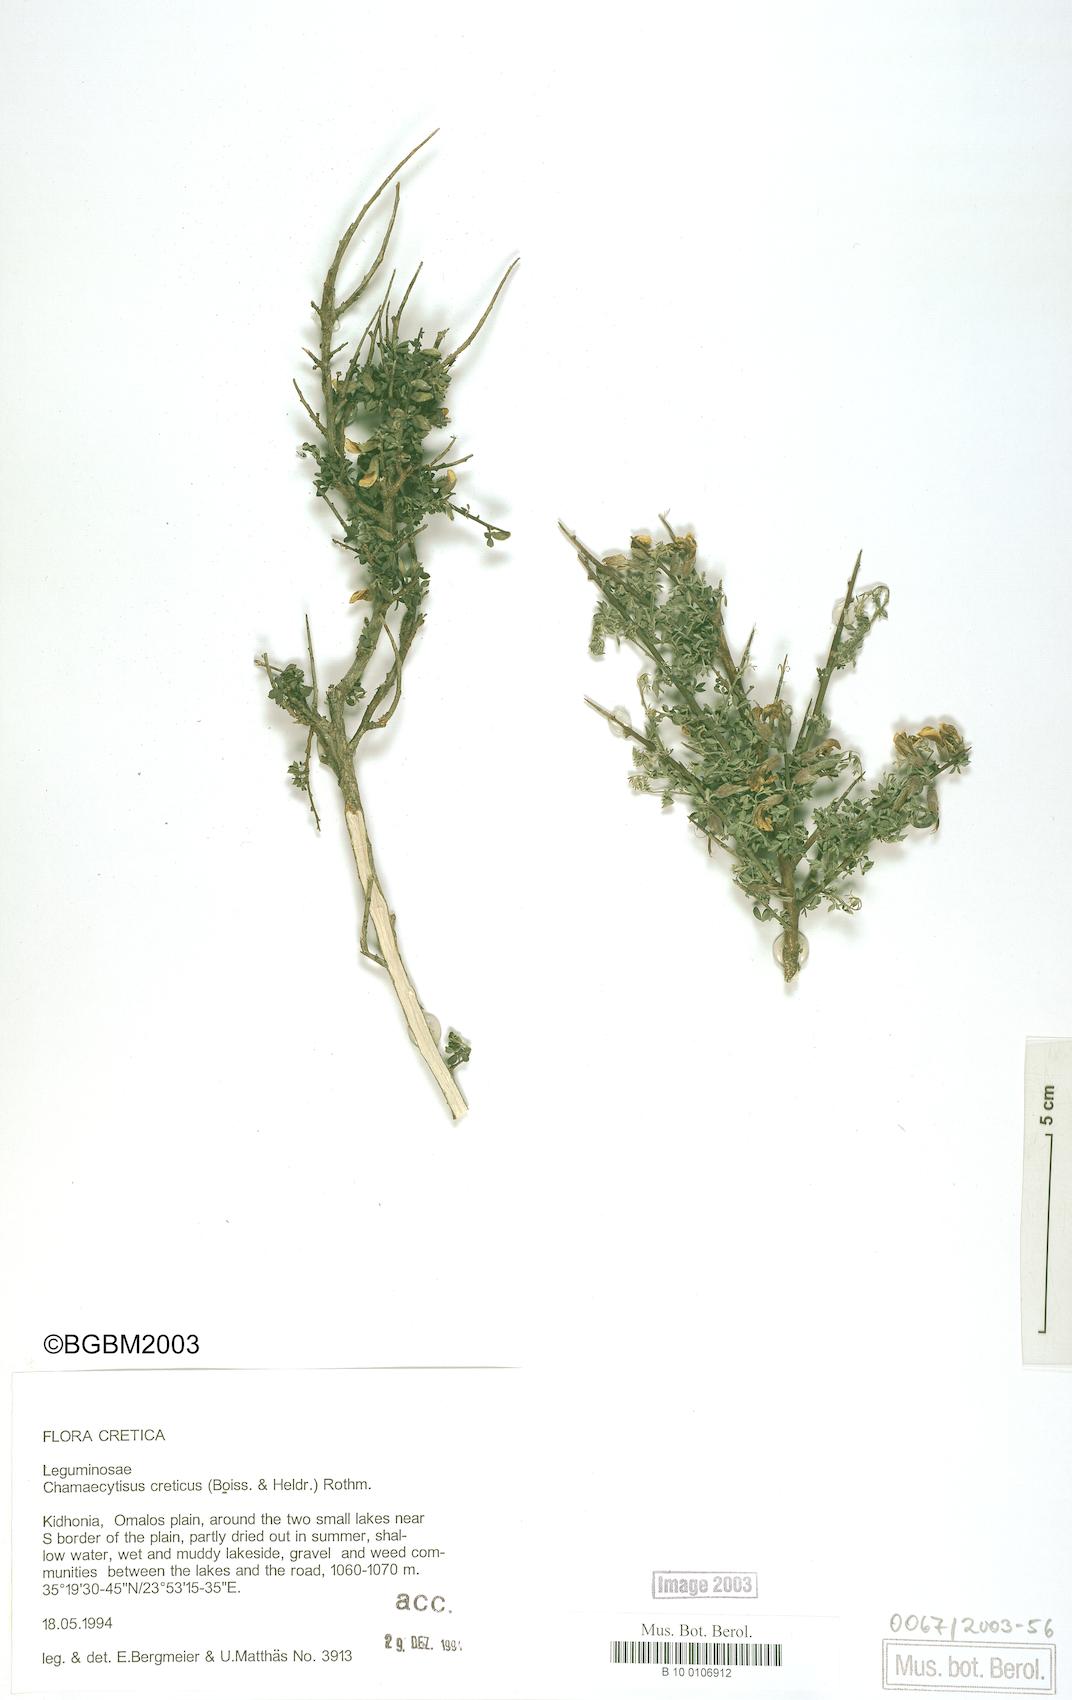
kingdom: Plantae
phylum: Tracheophyta
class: Magnoliopsida
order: Fabales
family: Fabaceae
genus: Chamaecytisus
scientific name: Chamaecytisus spinescens
